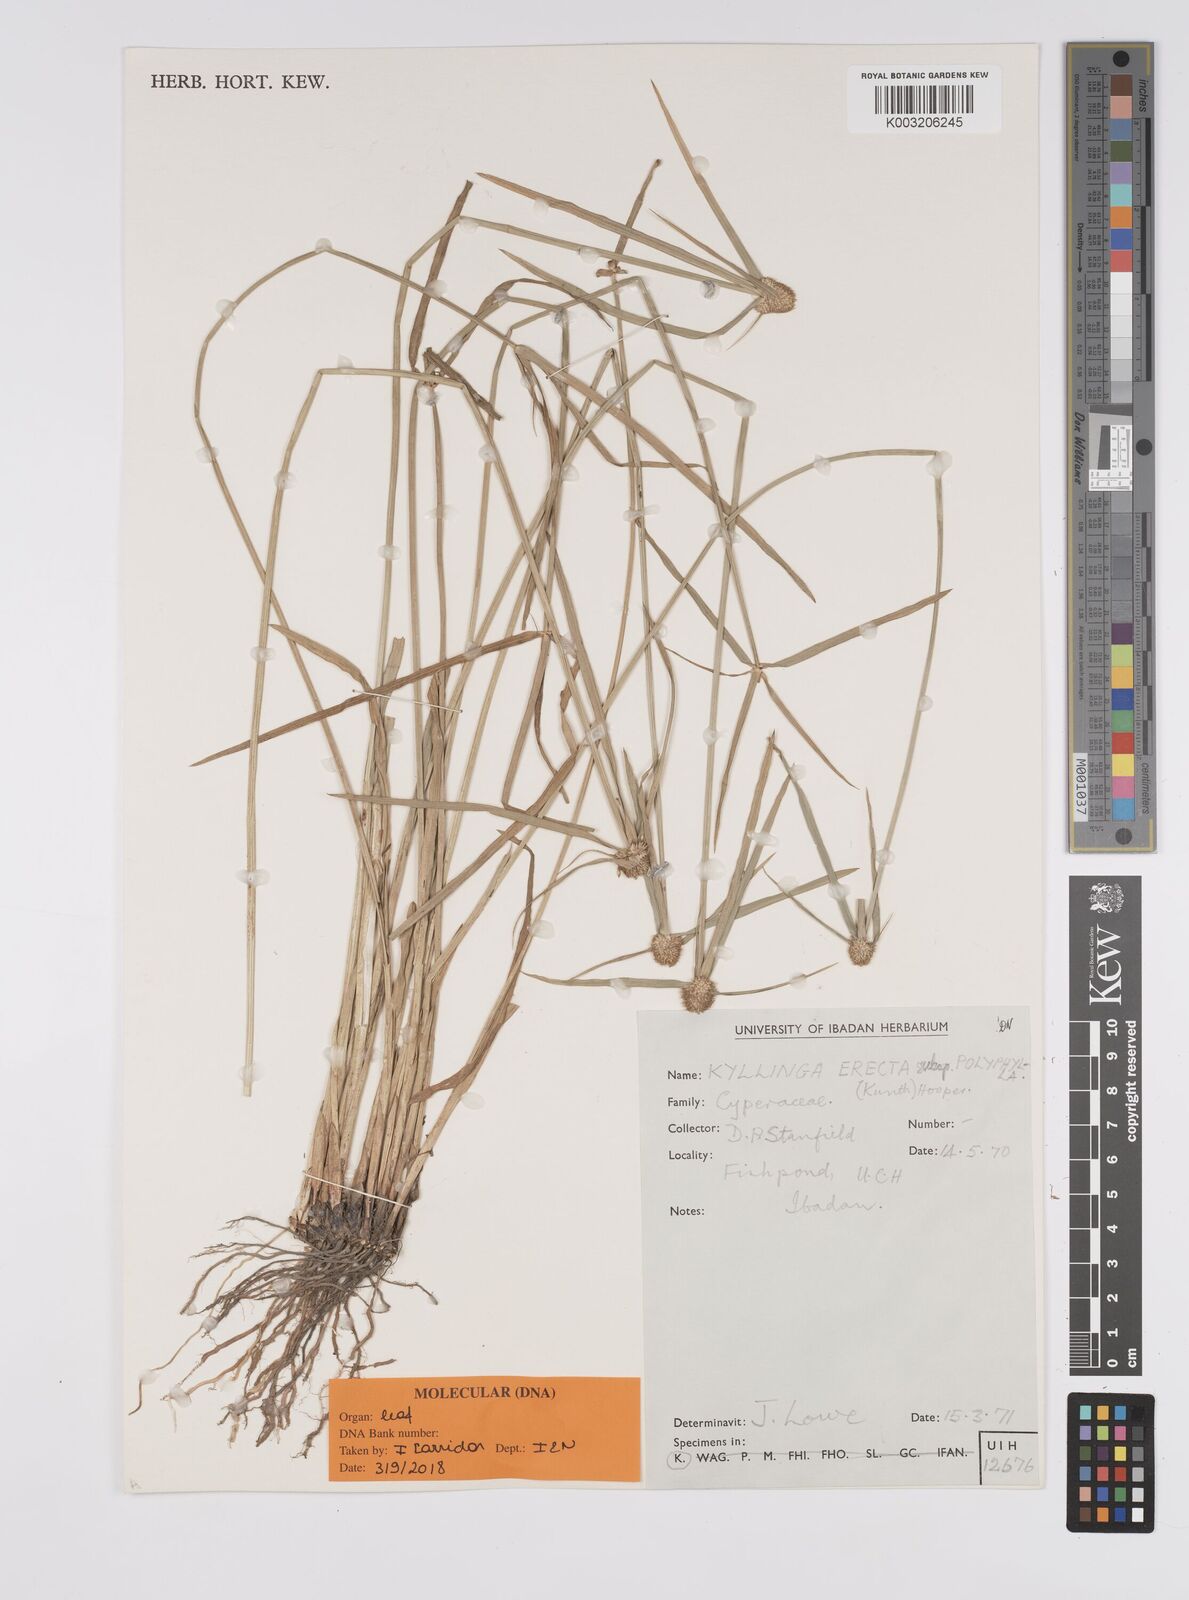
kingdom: Plantae
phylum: Tracheophyta
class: Liliopsida
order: Poales
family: Cyperaceae
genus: Cyperus
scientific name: Cyperus
